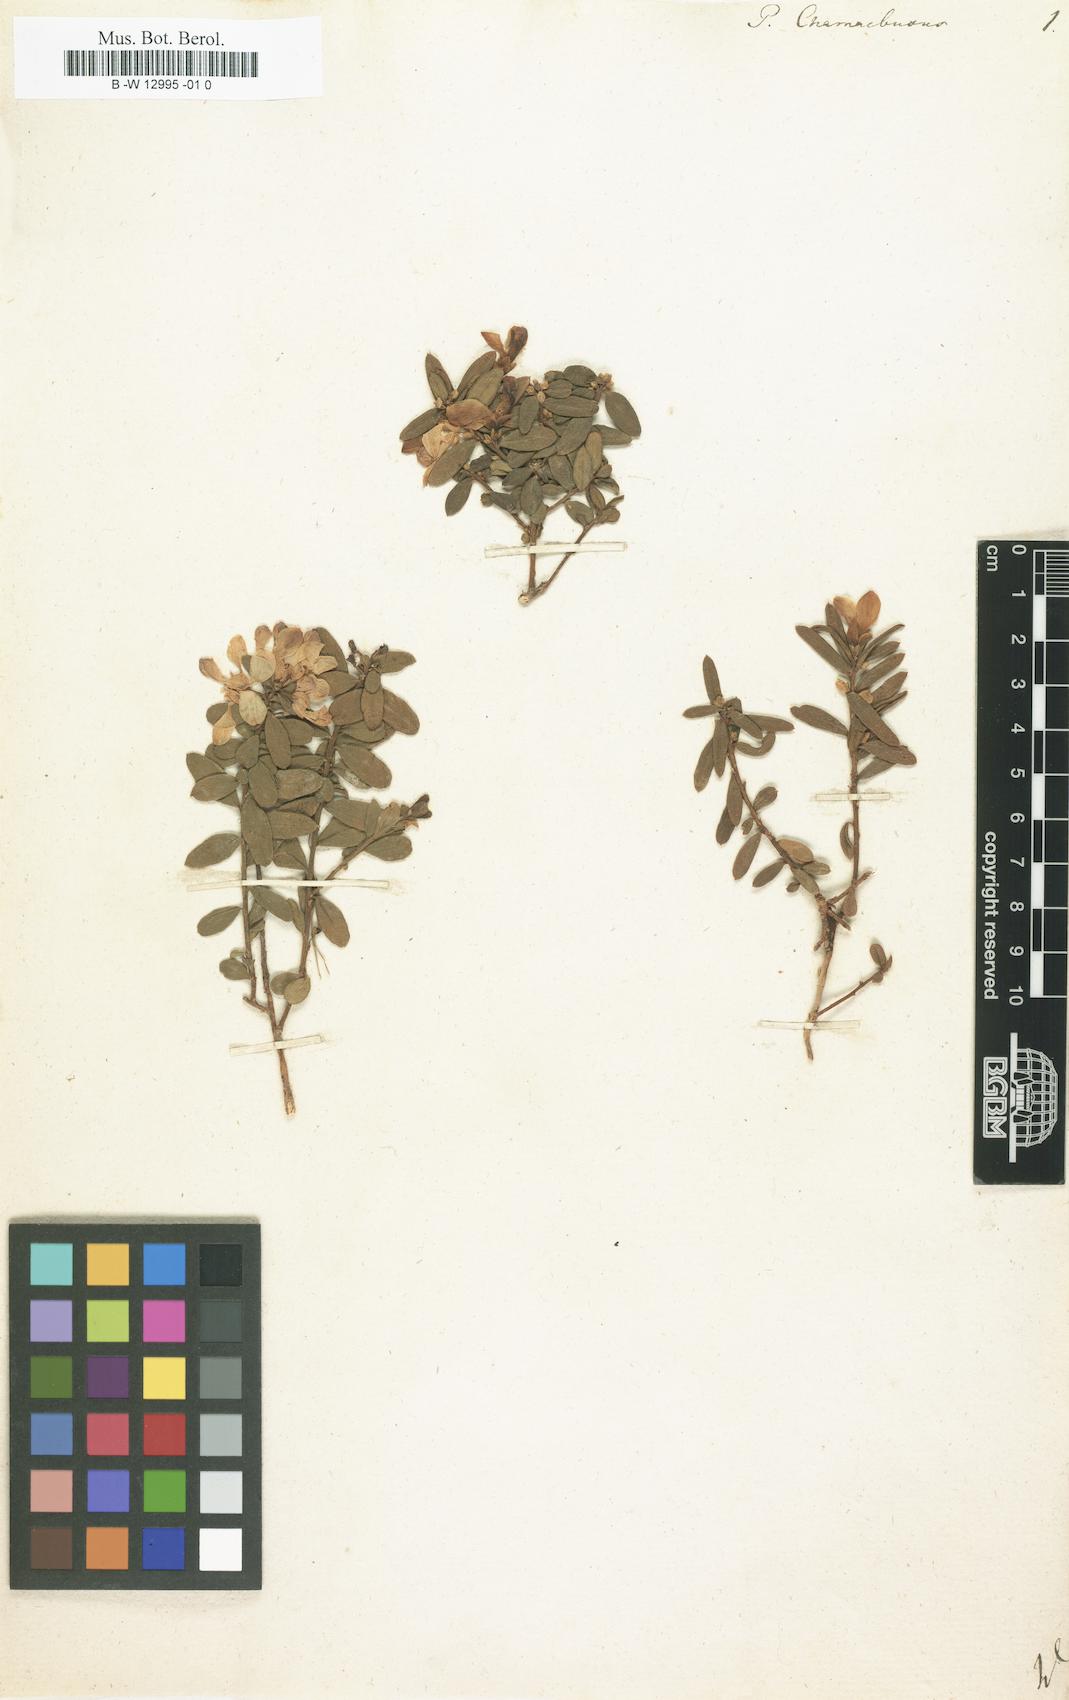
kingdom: Plantae
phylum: Tracheophyta
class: Magnoliopsida
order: Fabales
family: Polygalaceae
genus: Polygaloides
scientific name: Polygaloides chamaebuxus
